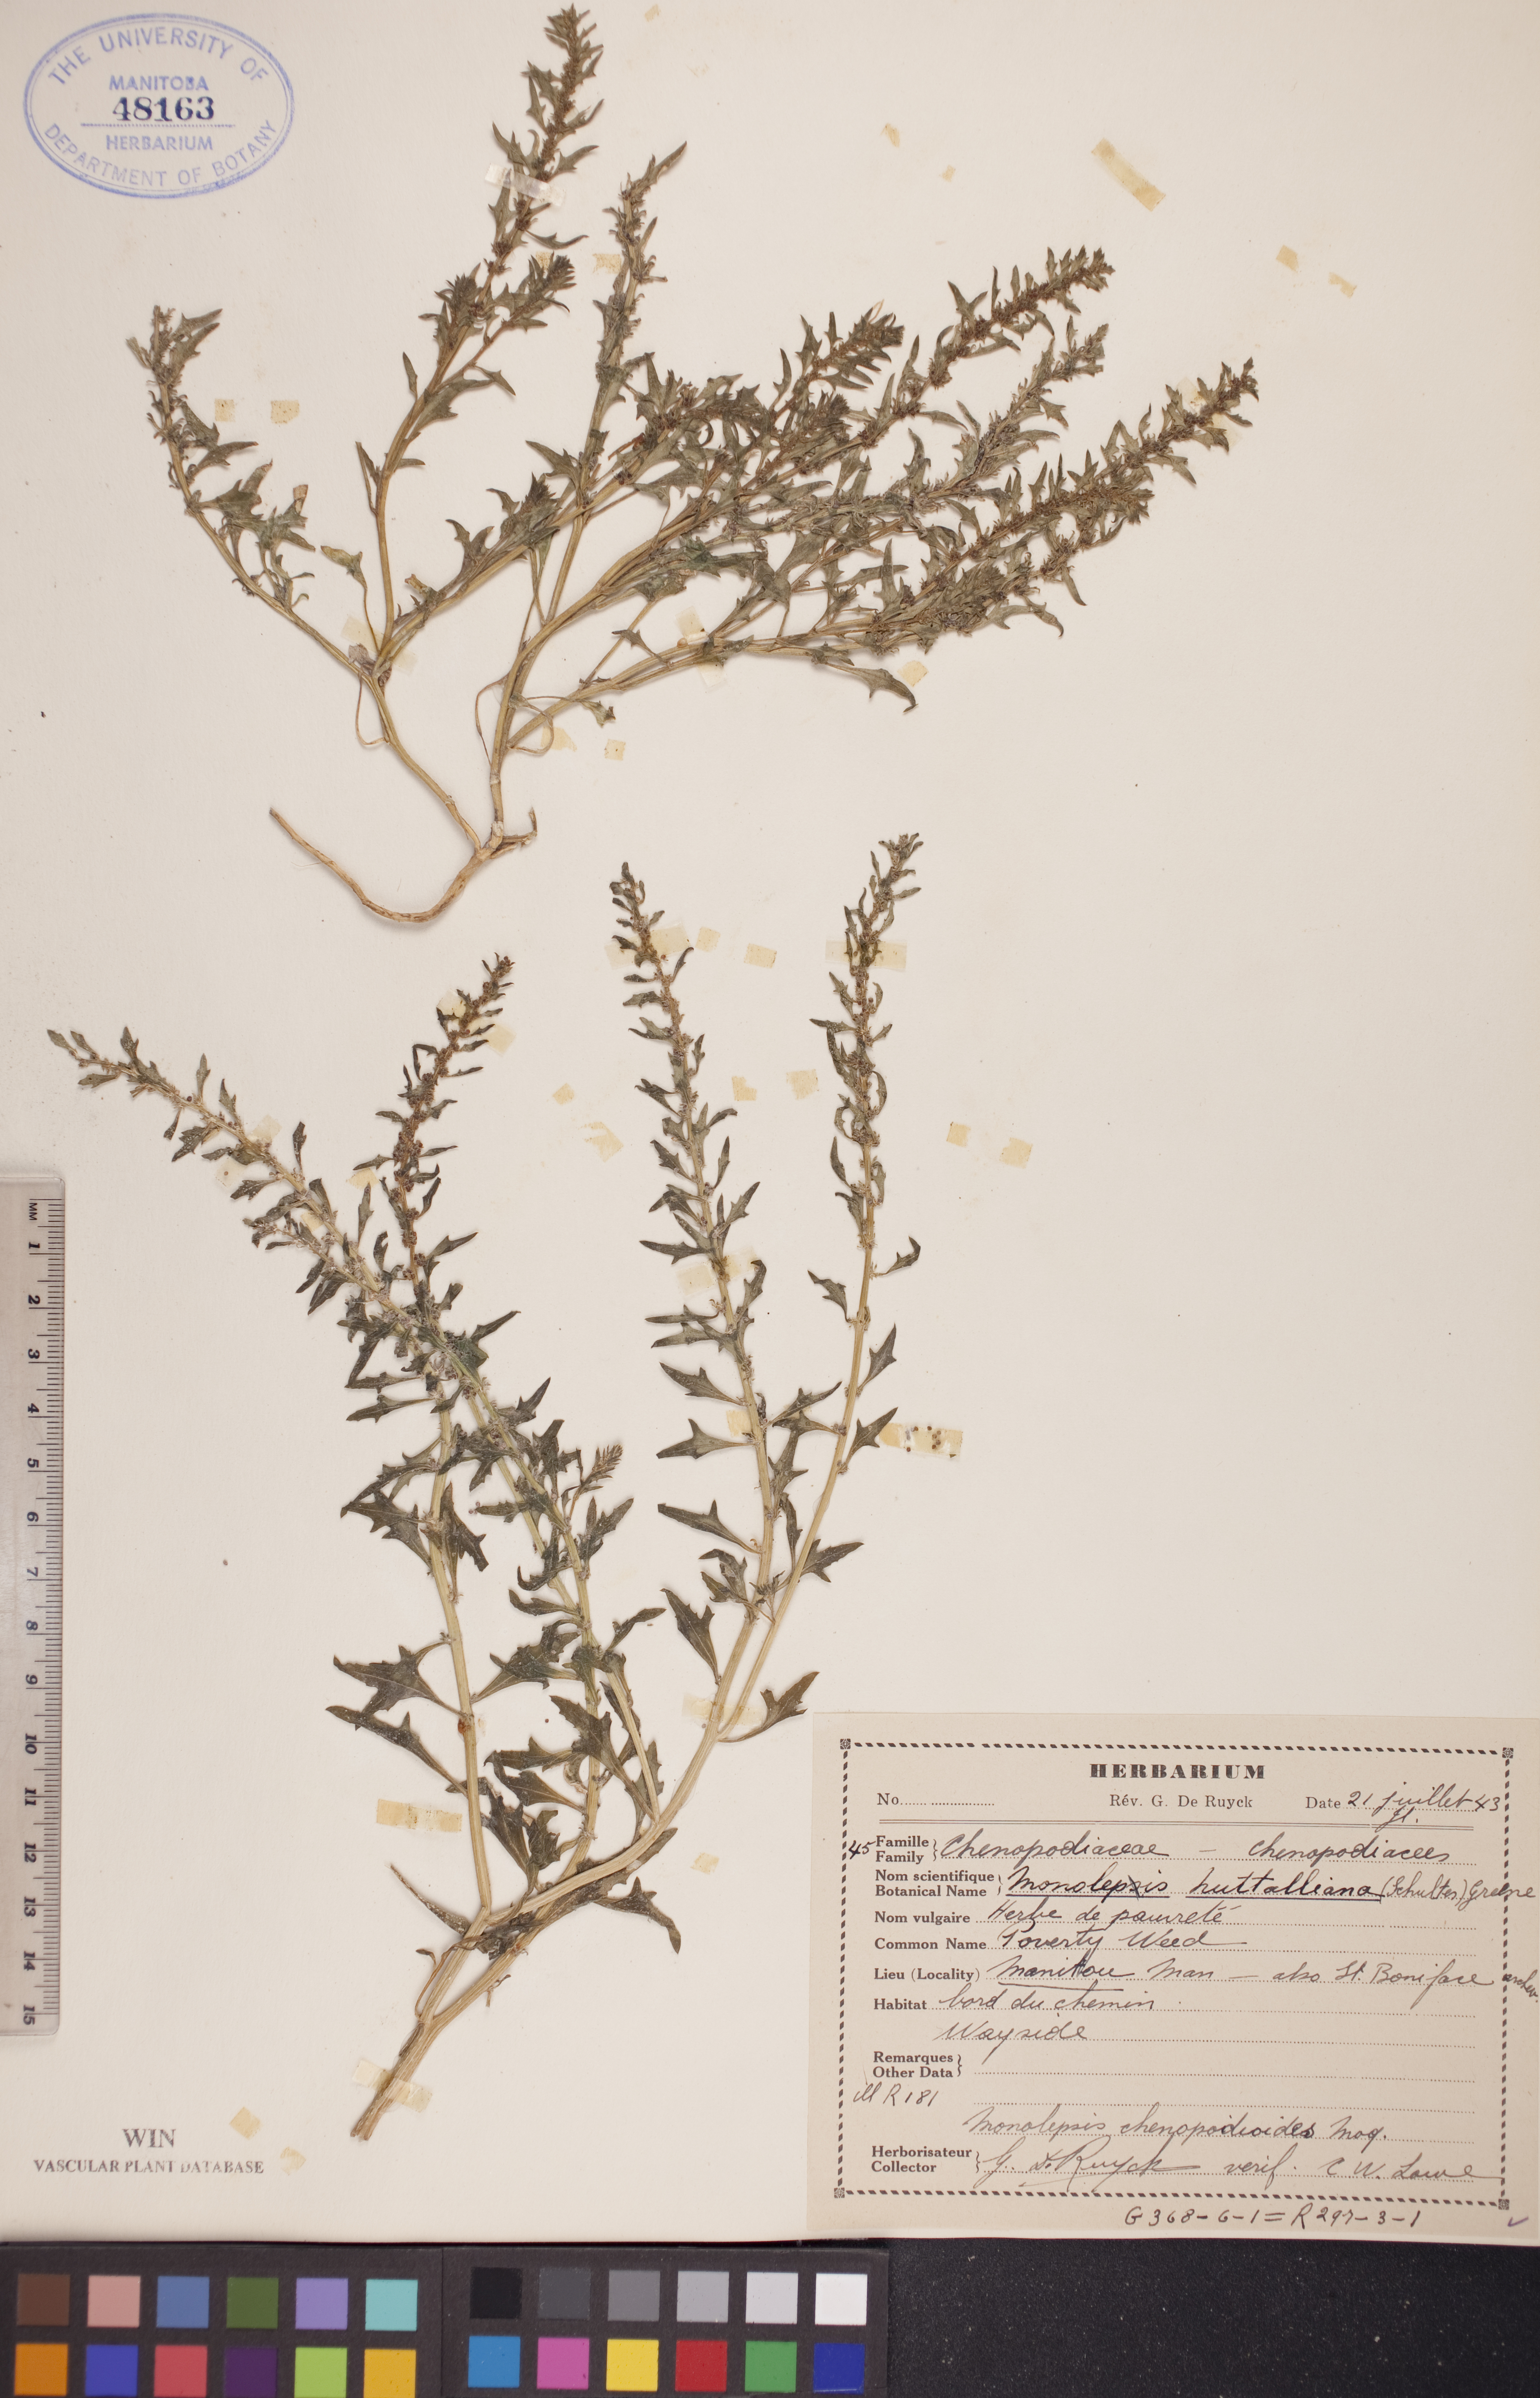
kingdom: Plantae
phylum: Tracheophyta
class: Magnoliopsida
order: Caryophyllales
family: Amaranthaceae
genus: Blitum
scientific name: Blitum nuttallianum
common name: Poverty-weed
